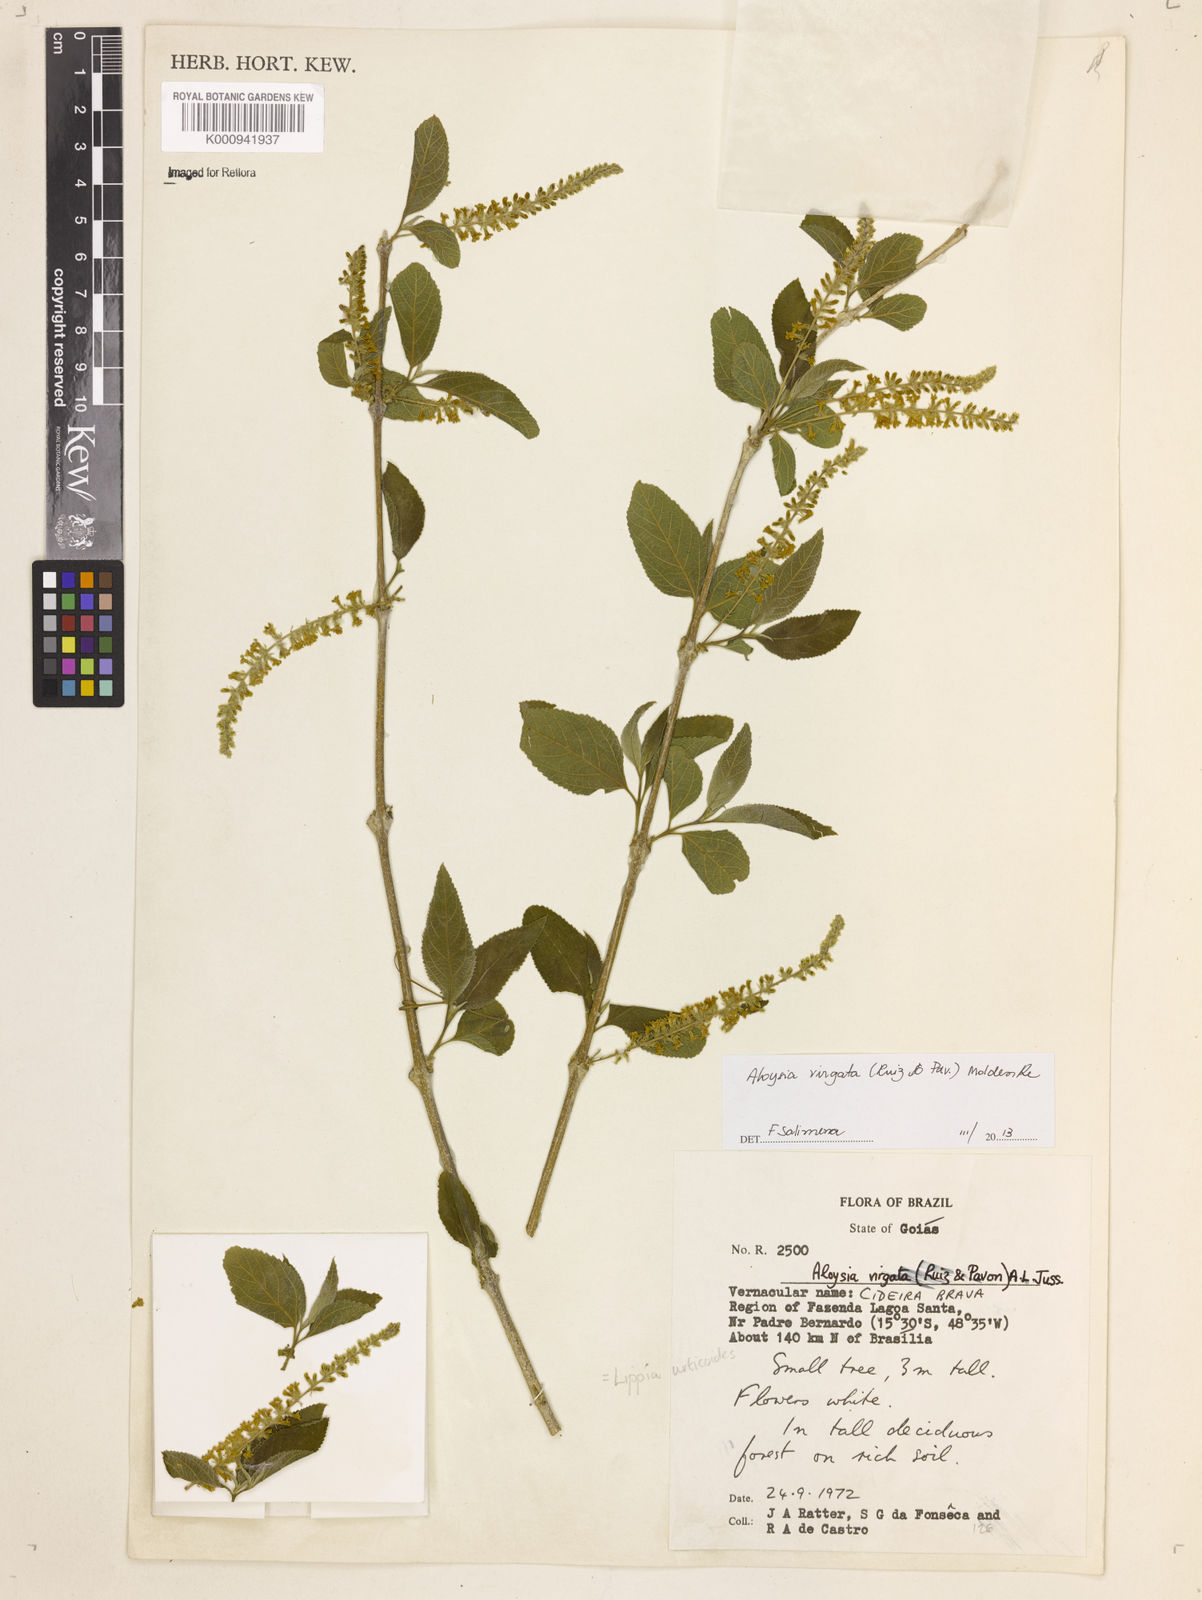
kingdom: Plantae
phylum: Tracheophyta
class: Magnoliopsida
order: Lamiales
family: Verbenaceae
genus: Aloysia
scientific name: Aloysia
